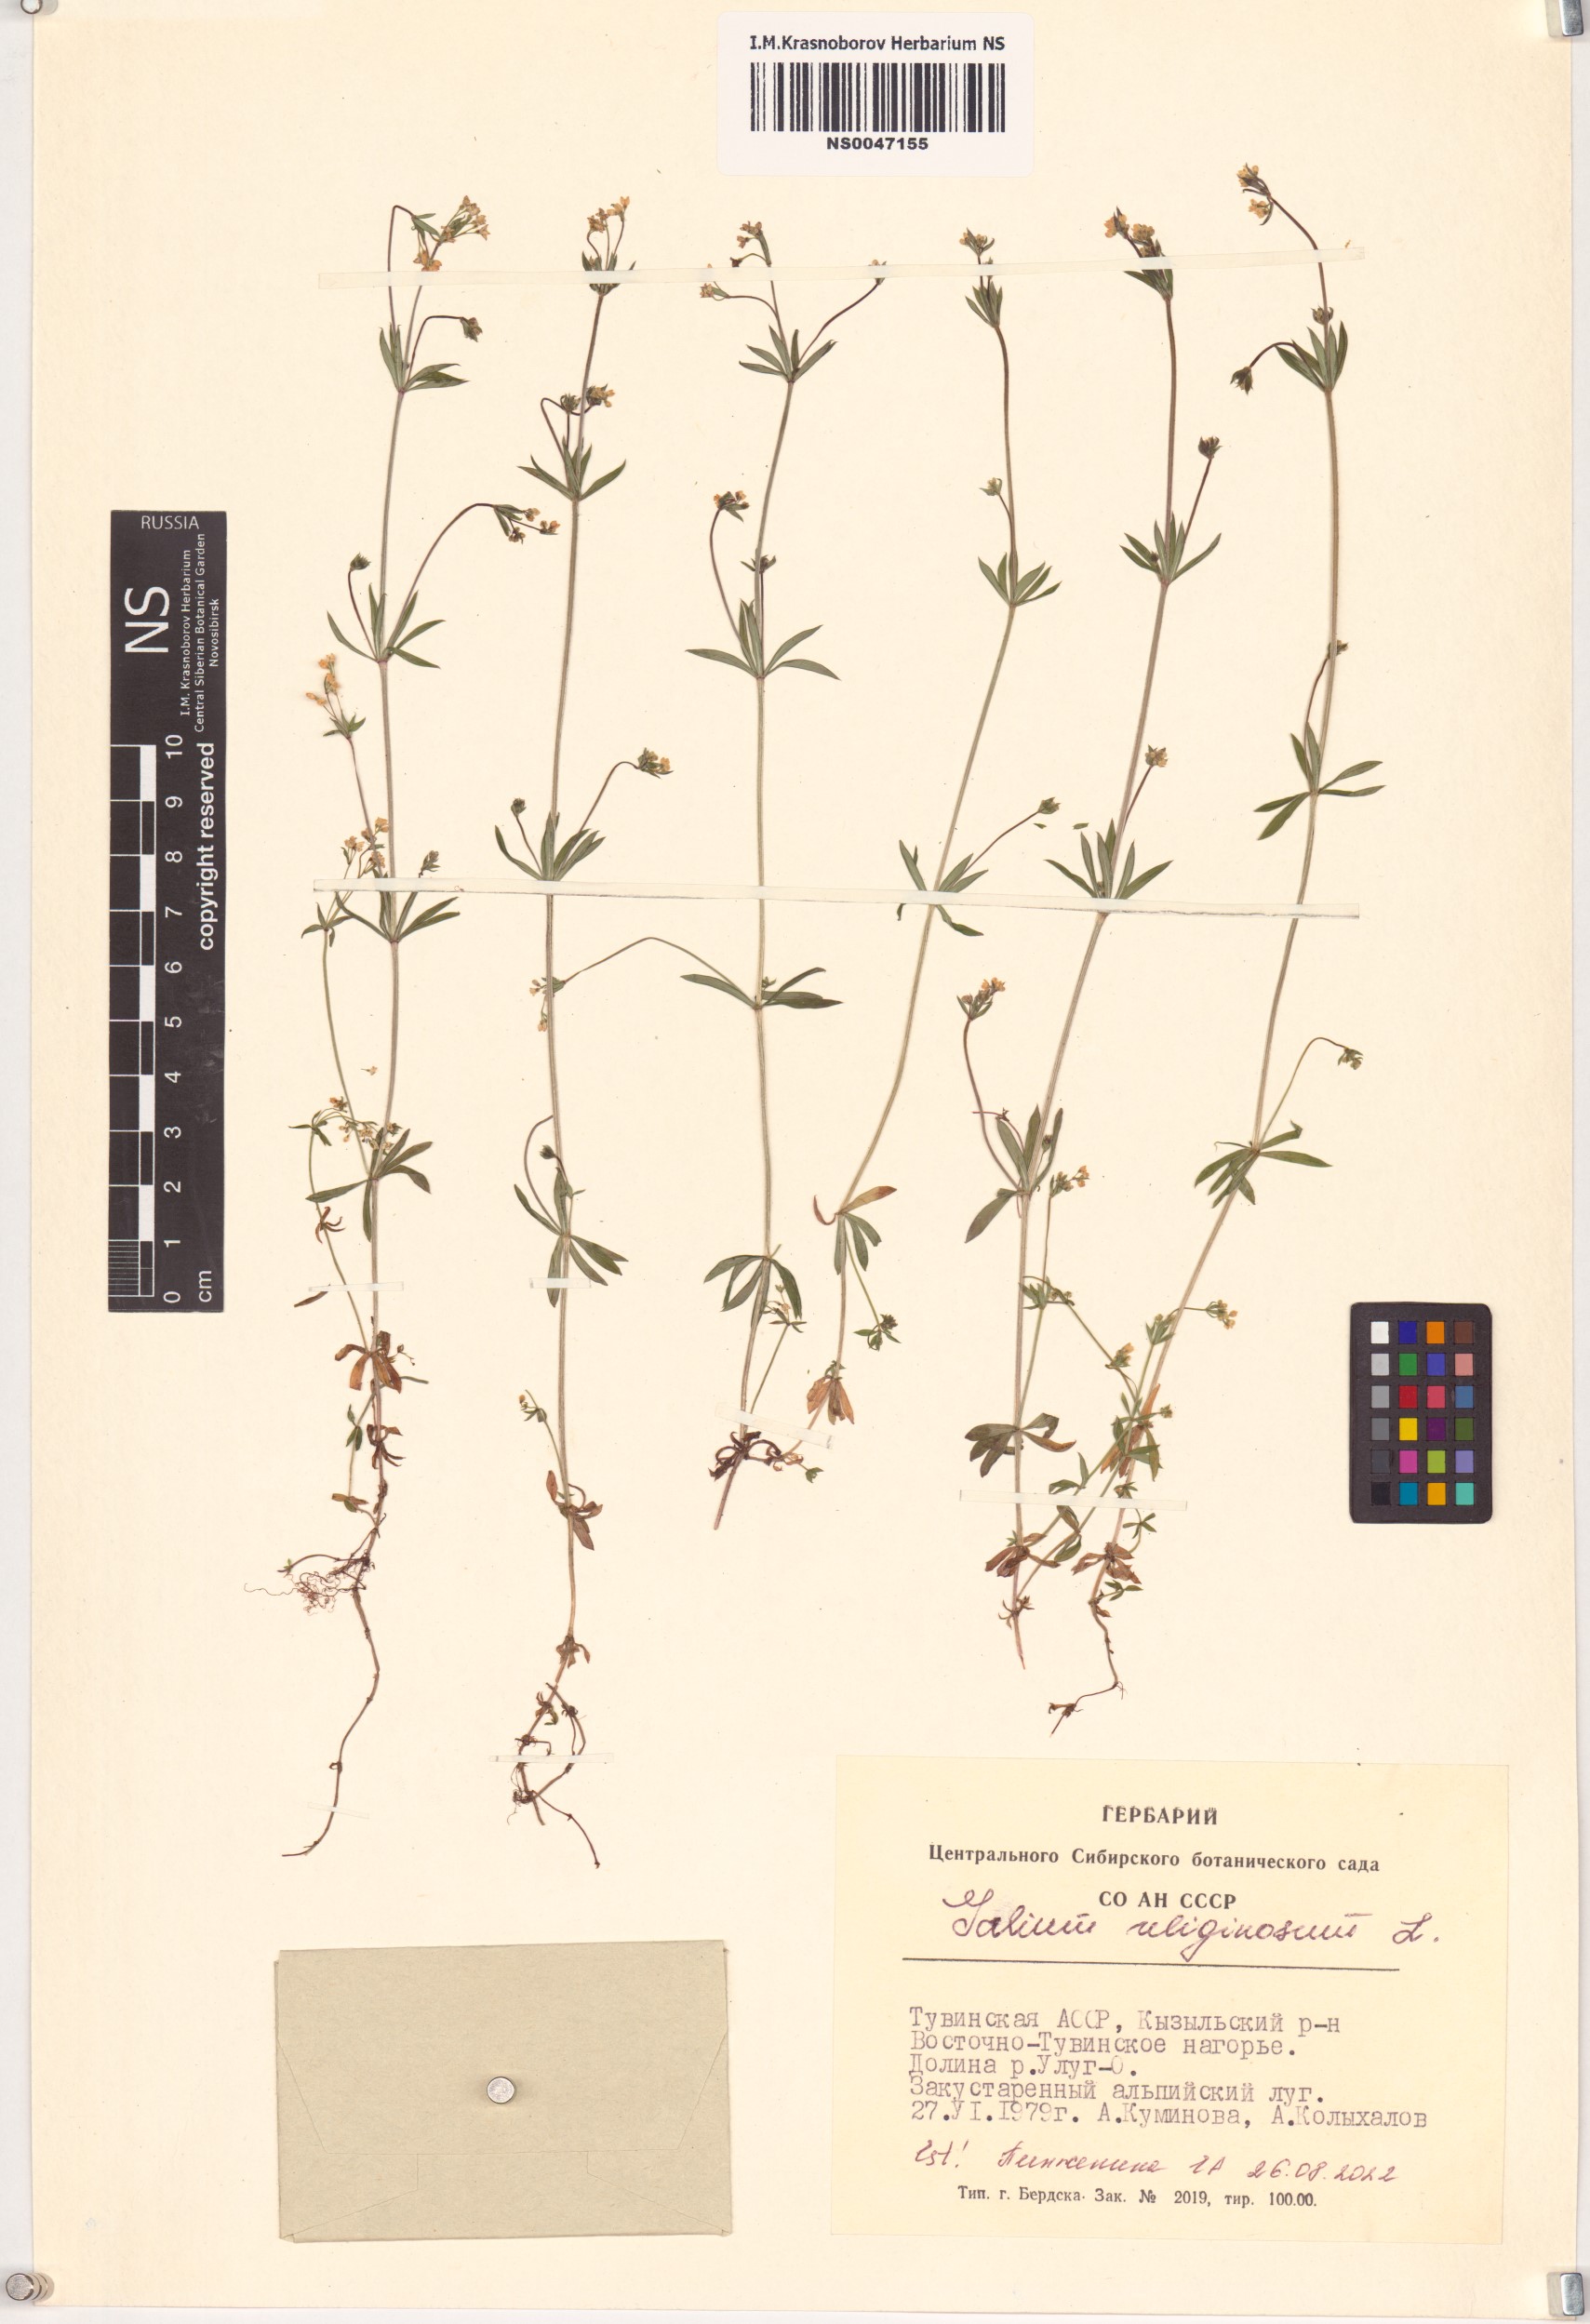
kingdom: Plantae
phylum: Tracheophyta
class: Magnoliopsida
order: Gentianales
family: Rubiaceae
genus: Galium
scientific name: Galium uliginosum
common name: Fen bedstraw
